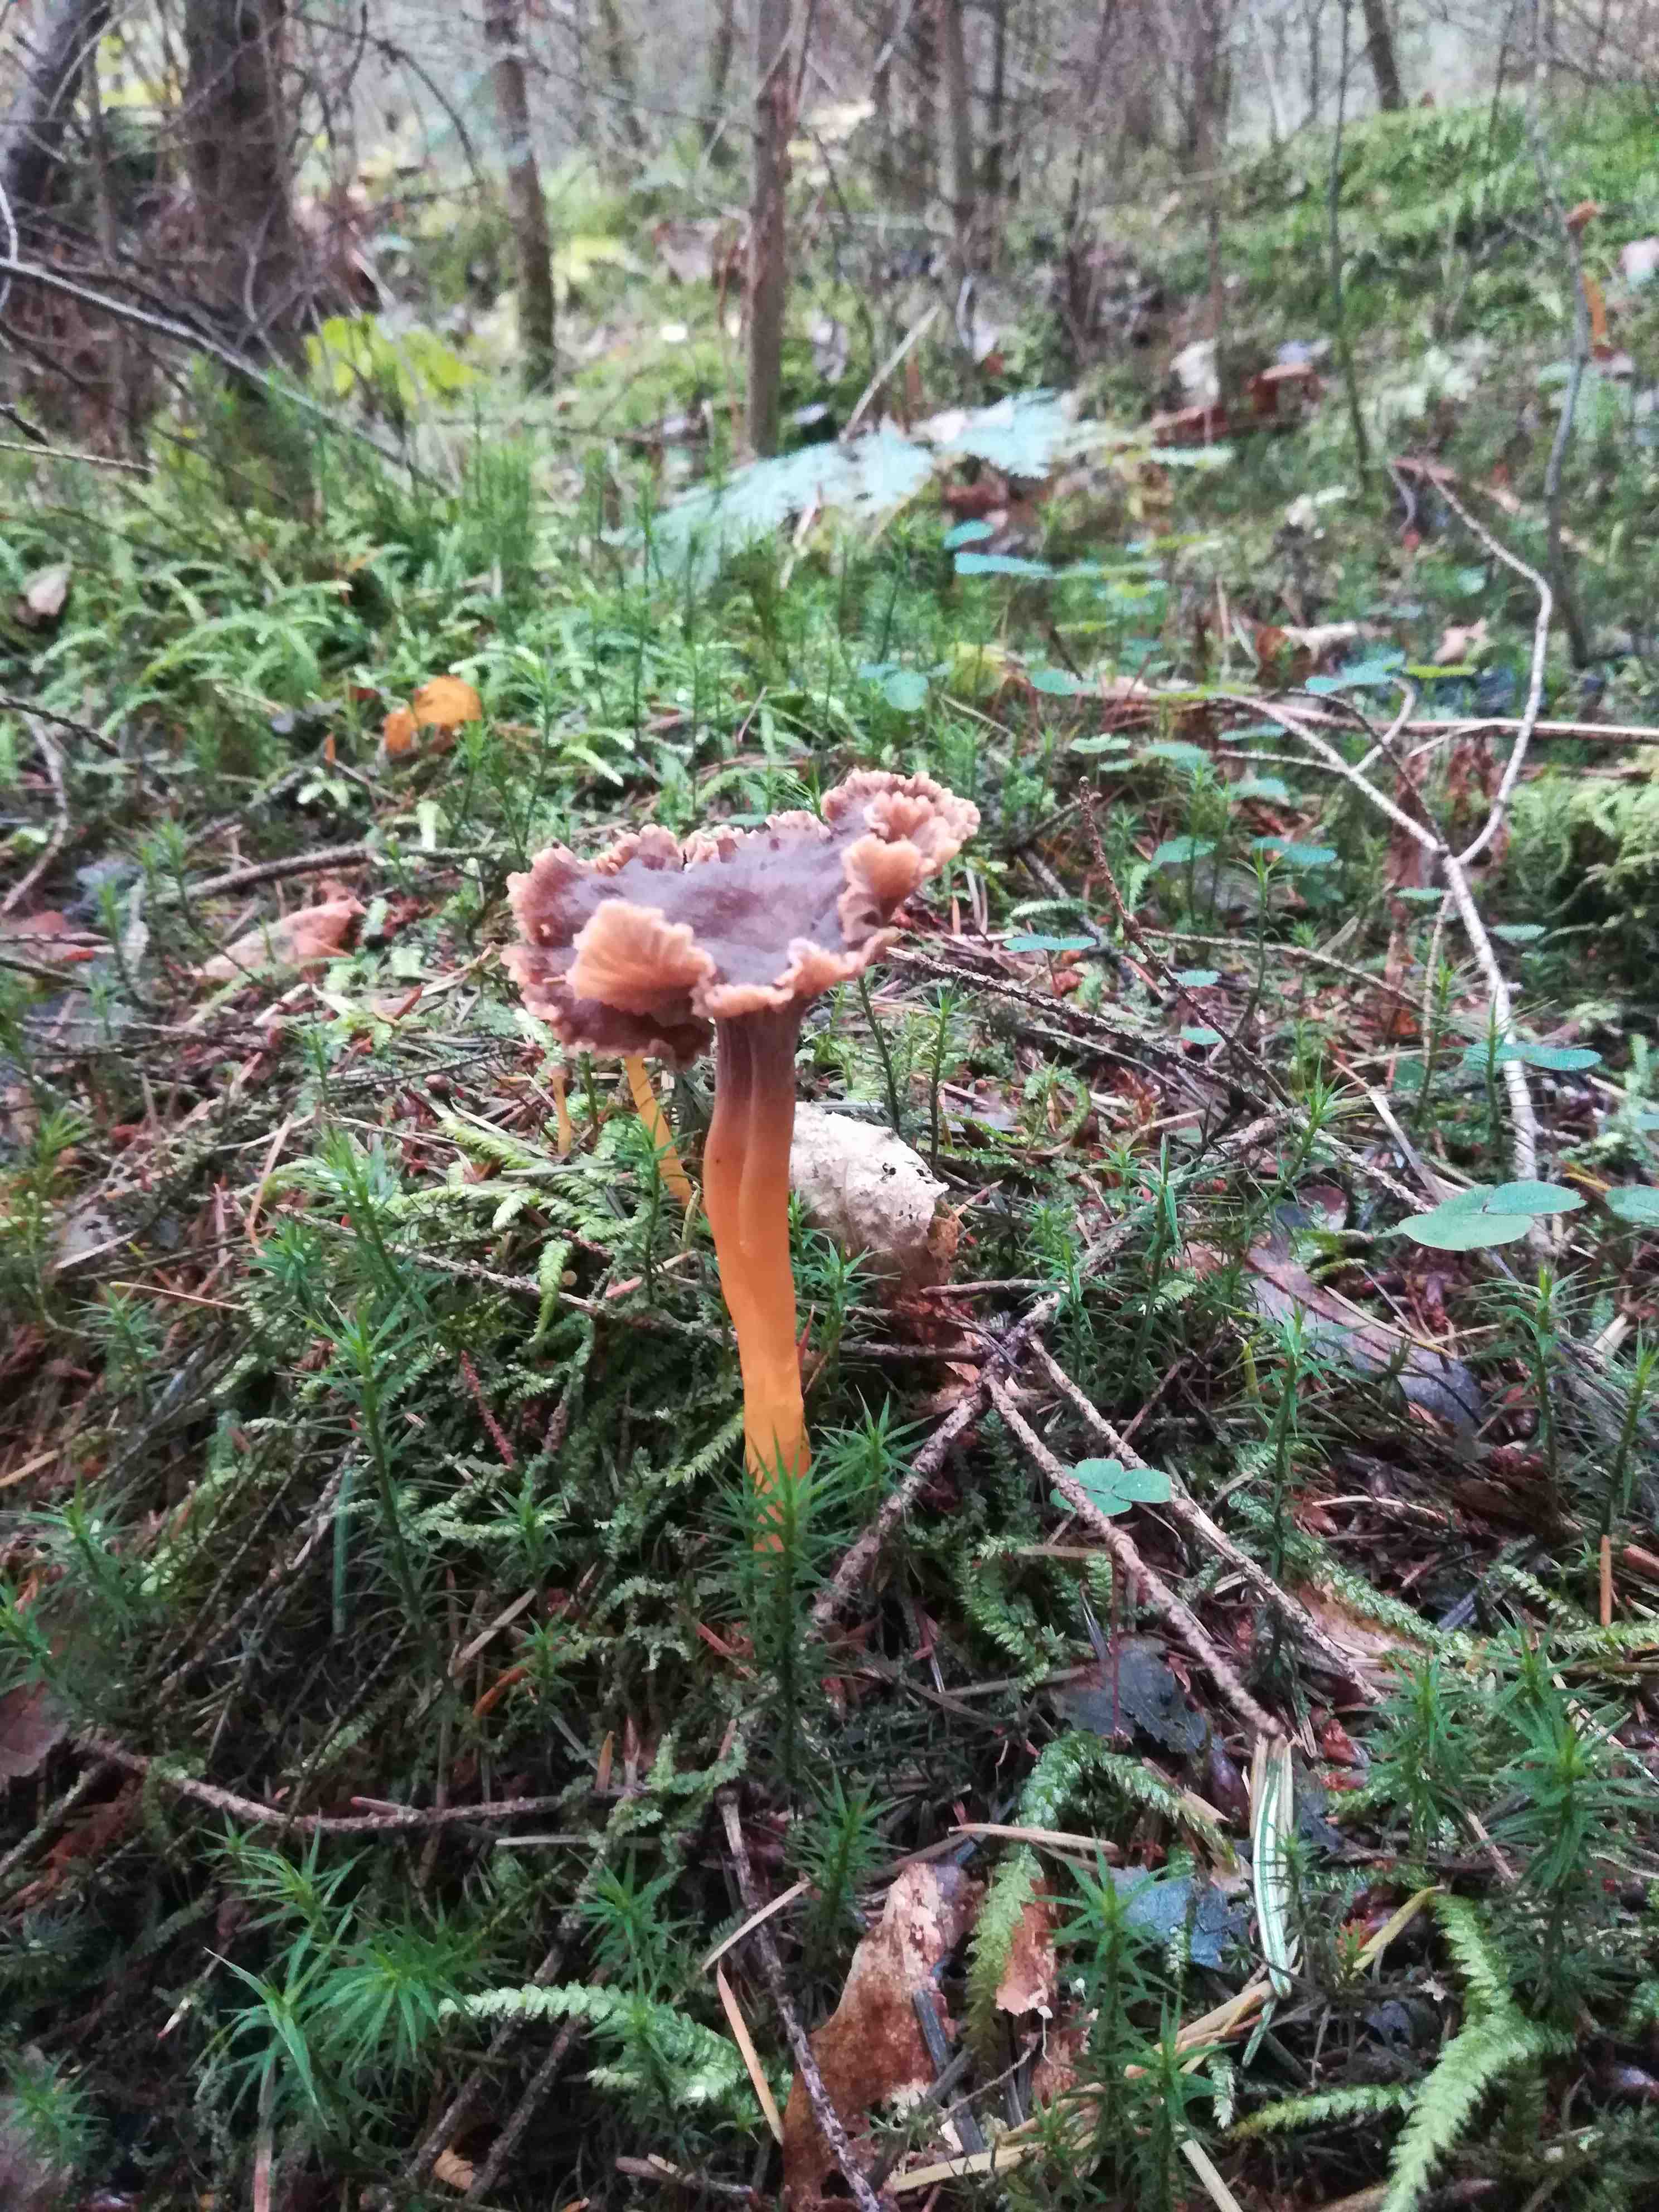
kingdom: Fungi
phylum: Basidiomycota
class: Agaricomycetes
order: Cantharellales
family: Hydnaceae
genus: Craterellus
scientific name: Craterellus tubaeformis
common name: tragt-kantarel
